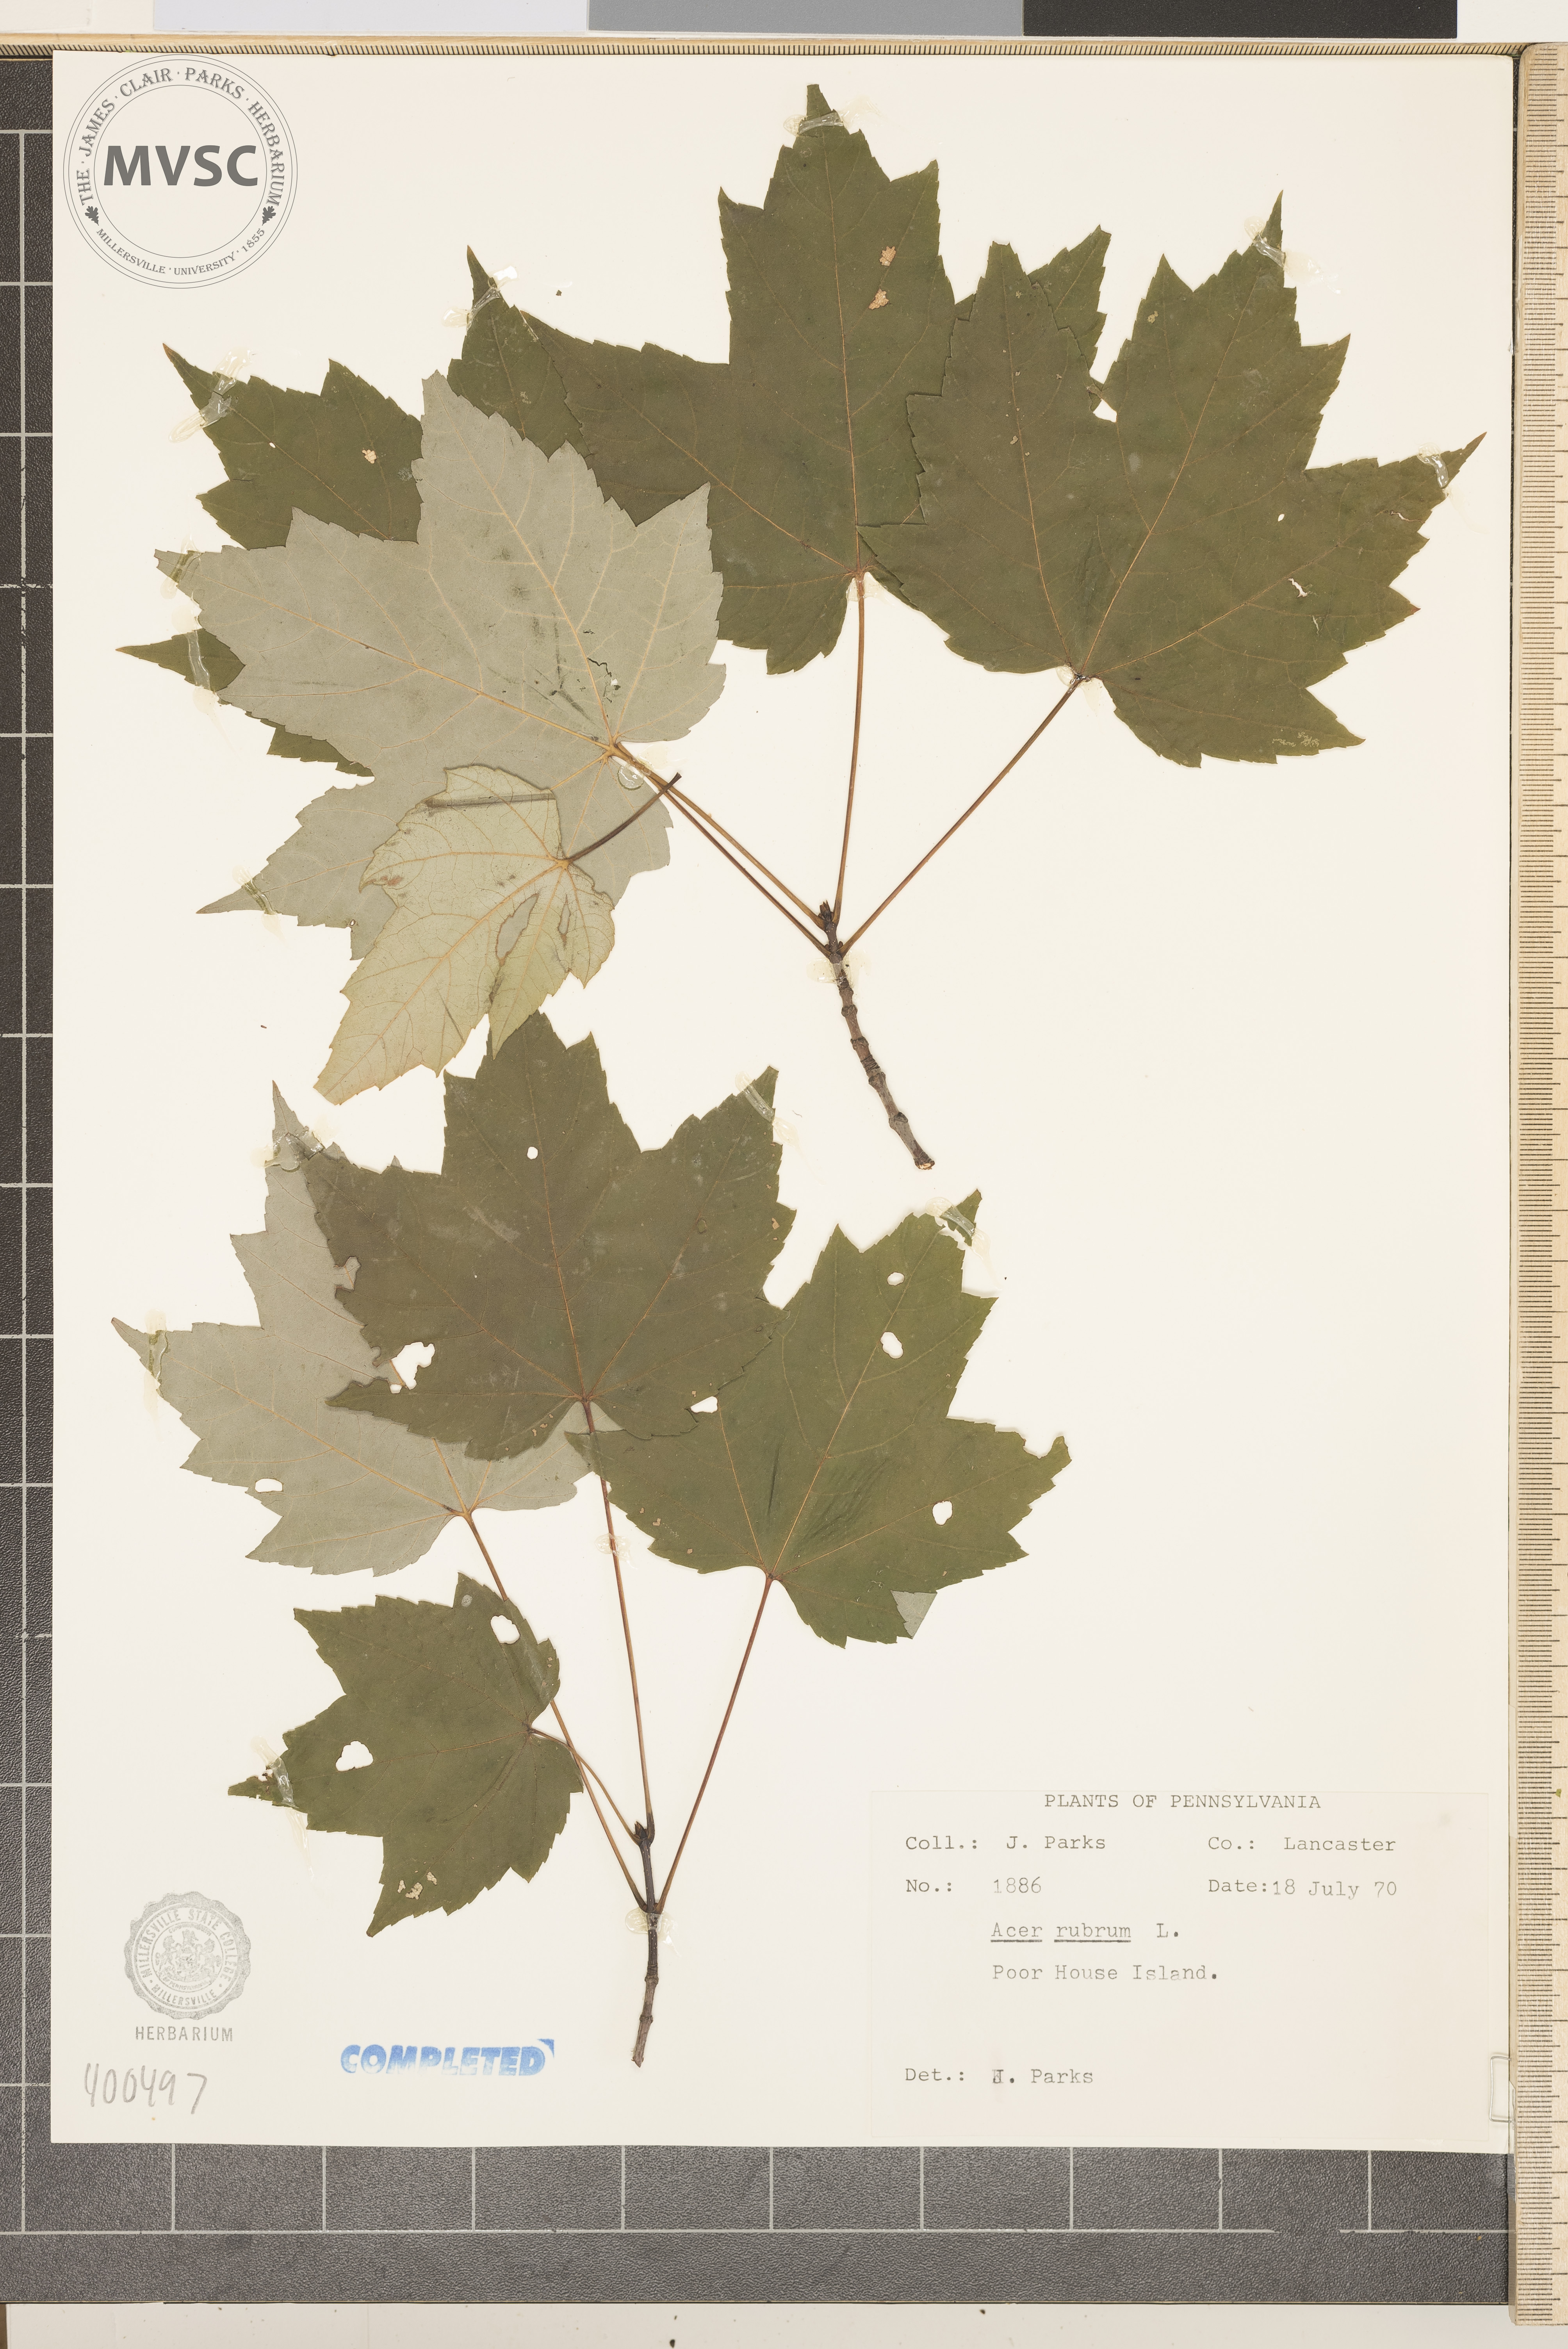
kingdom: Plantae
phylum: Tracheophyta
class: Magnoliopsida
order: Sapindales
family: Sapindaceae
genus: Acer
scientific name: Acer rubrum
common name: red maple
